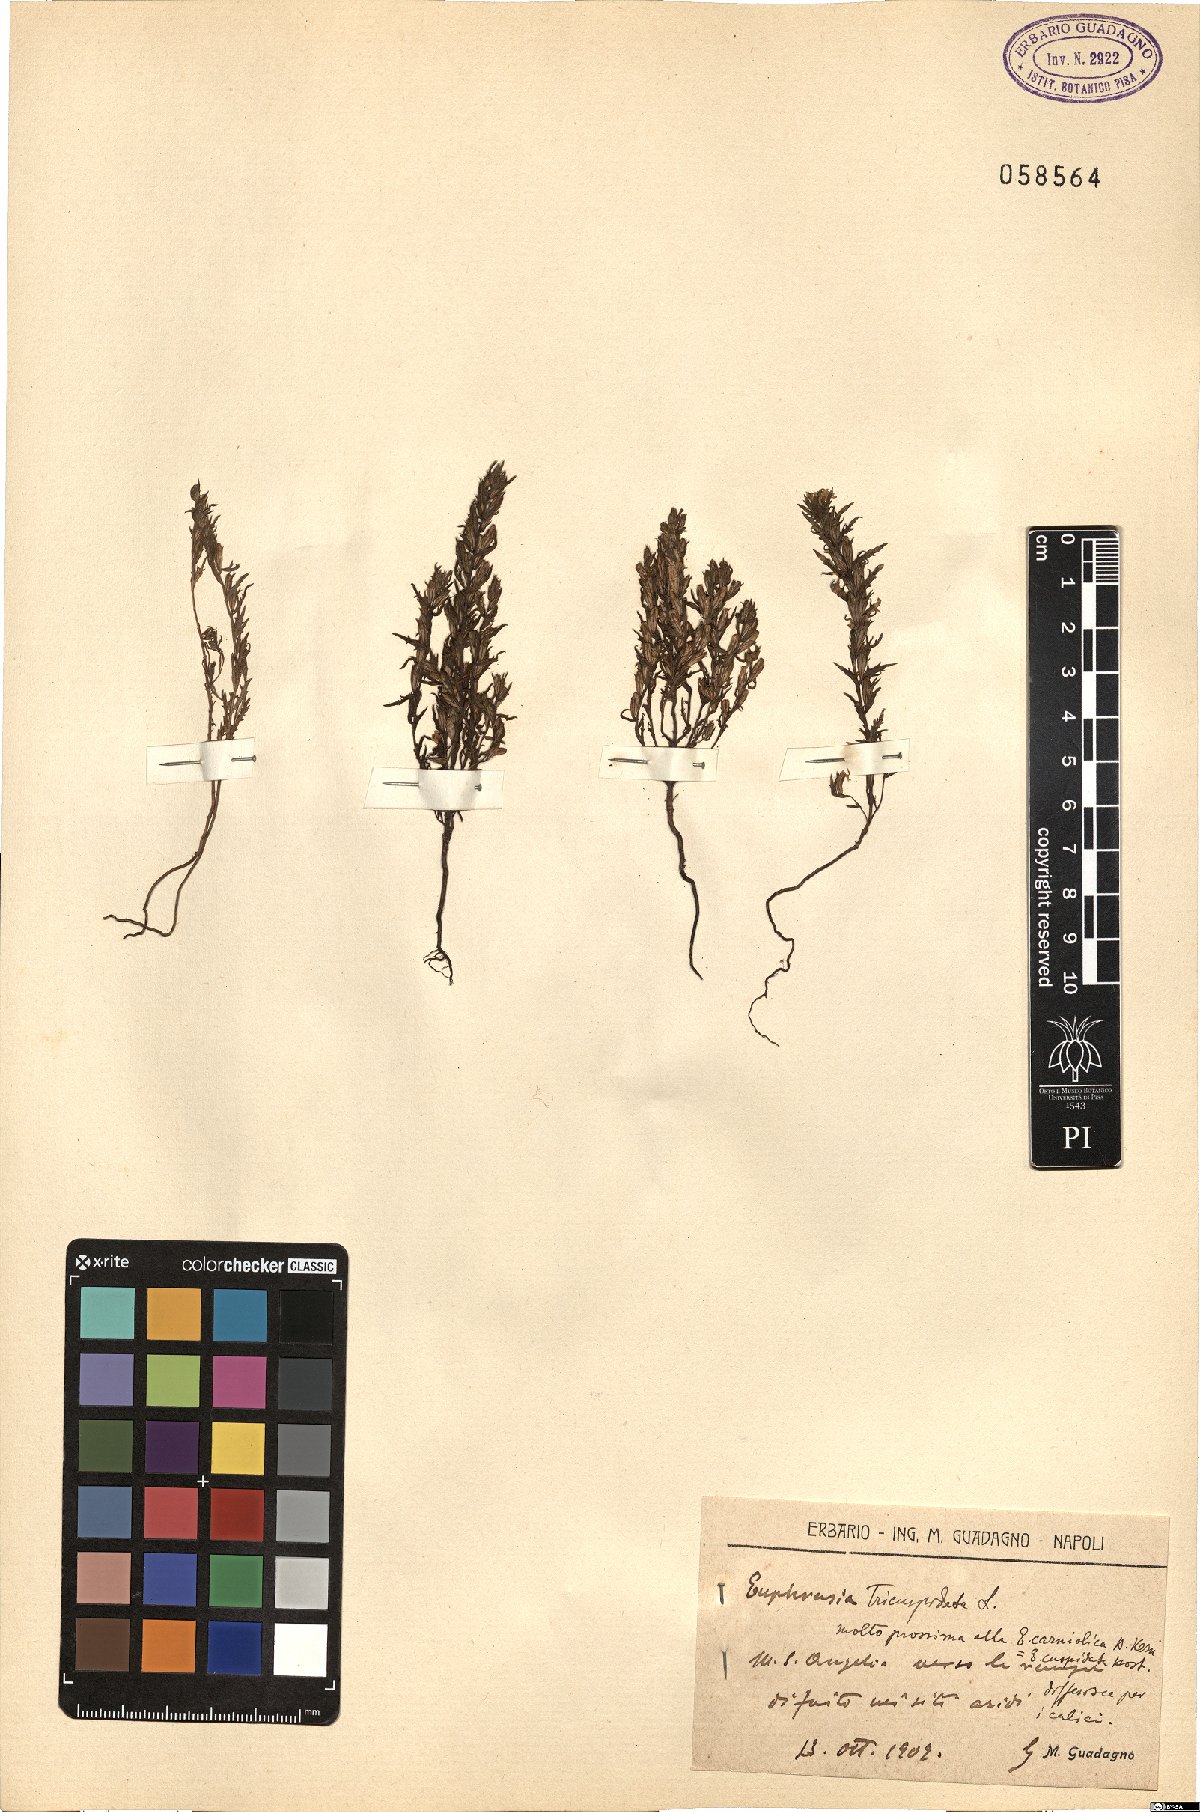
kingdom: Plantae
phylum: Tracheophyta
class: Magnoliopsida
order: Lamiales
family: Orobanchaceae
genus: Euphrasia
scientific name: Euphrasia tricuspidata
